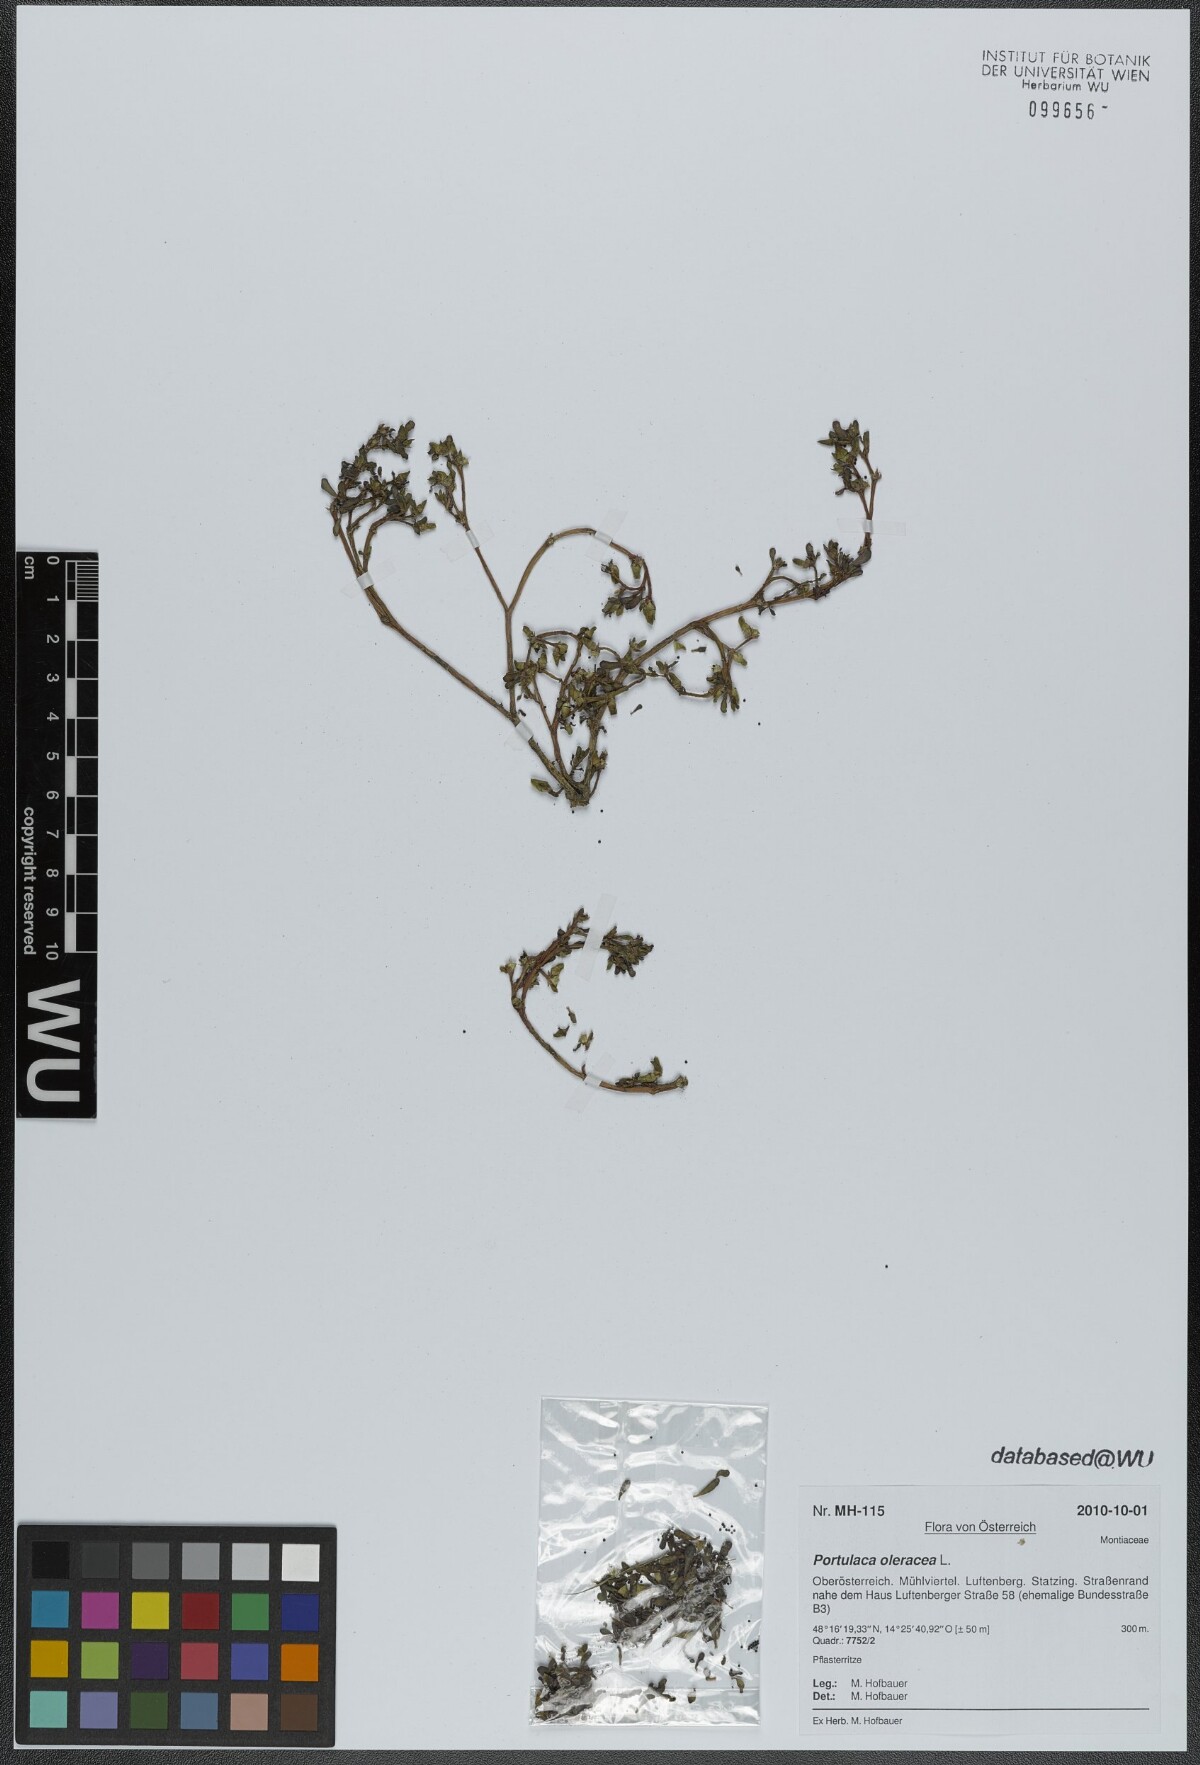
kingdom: Plantae
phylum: Tracheophyta
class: Magnoliopsida
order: Caryophyllales
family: Portulacaceae
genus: Portulaca
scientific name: Portulaca oleracea
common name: Common purslane
